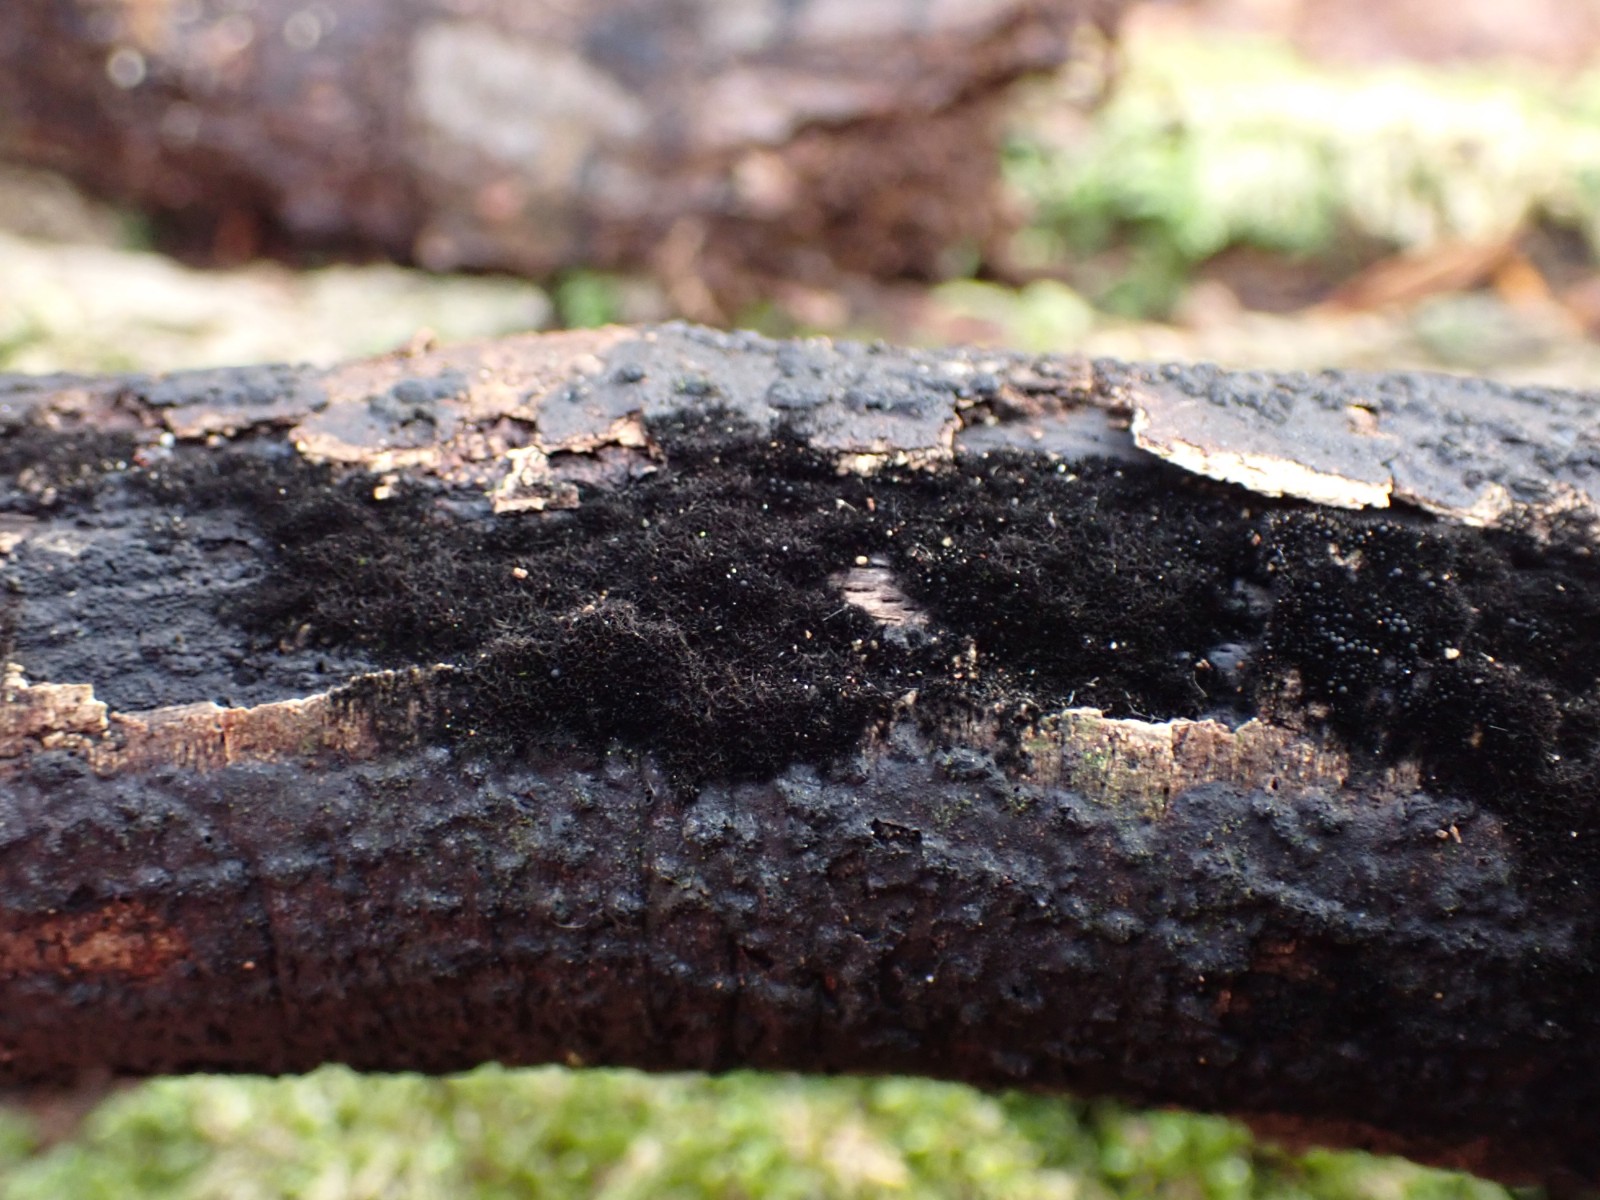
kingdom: Fungi
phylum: Ascomycota
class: Sordariomycetes
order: Coronophorales
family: Chaetosphaerellaceae
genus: Chaetosphaerella
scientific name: Chaetosphaerella phaeostroma
